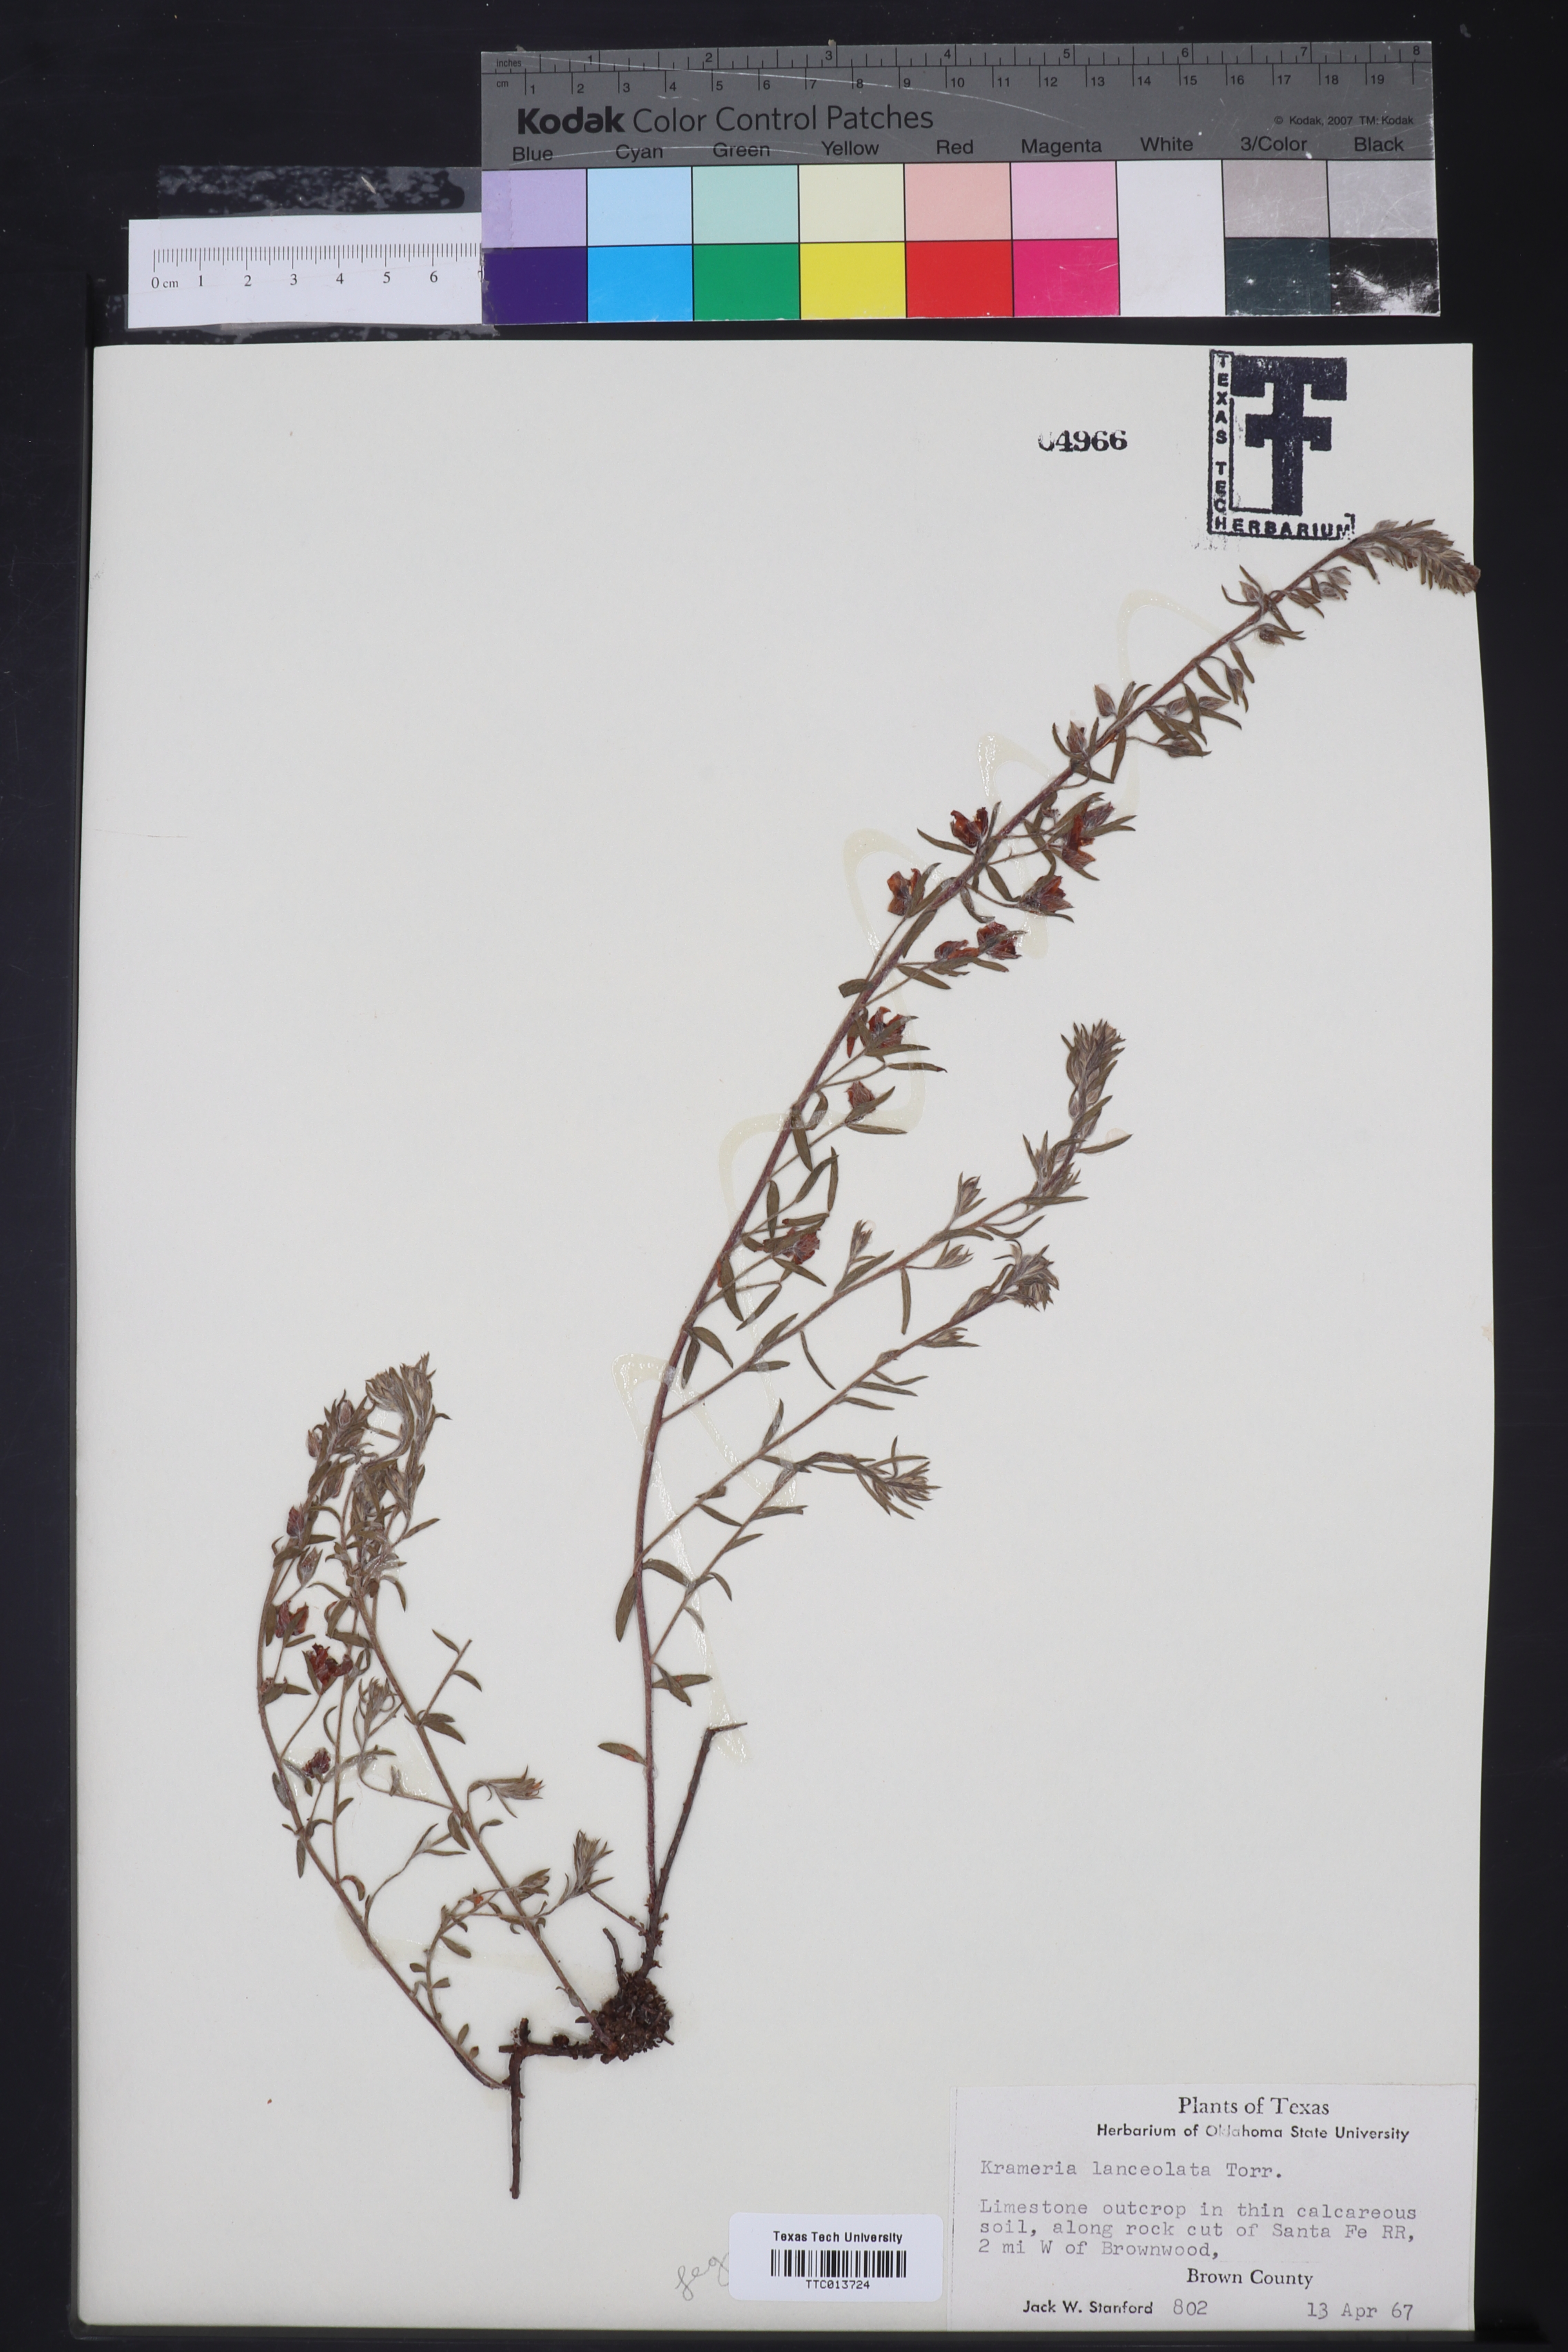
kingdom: Plantae
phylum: Tracheophyta
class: Magnoliopsida
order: Zygophyllales
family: Krameriaceae
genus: Krameria
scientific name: Krameria lanceolata
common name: Ratany
